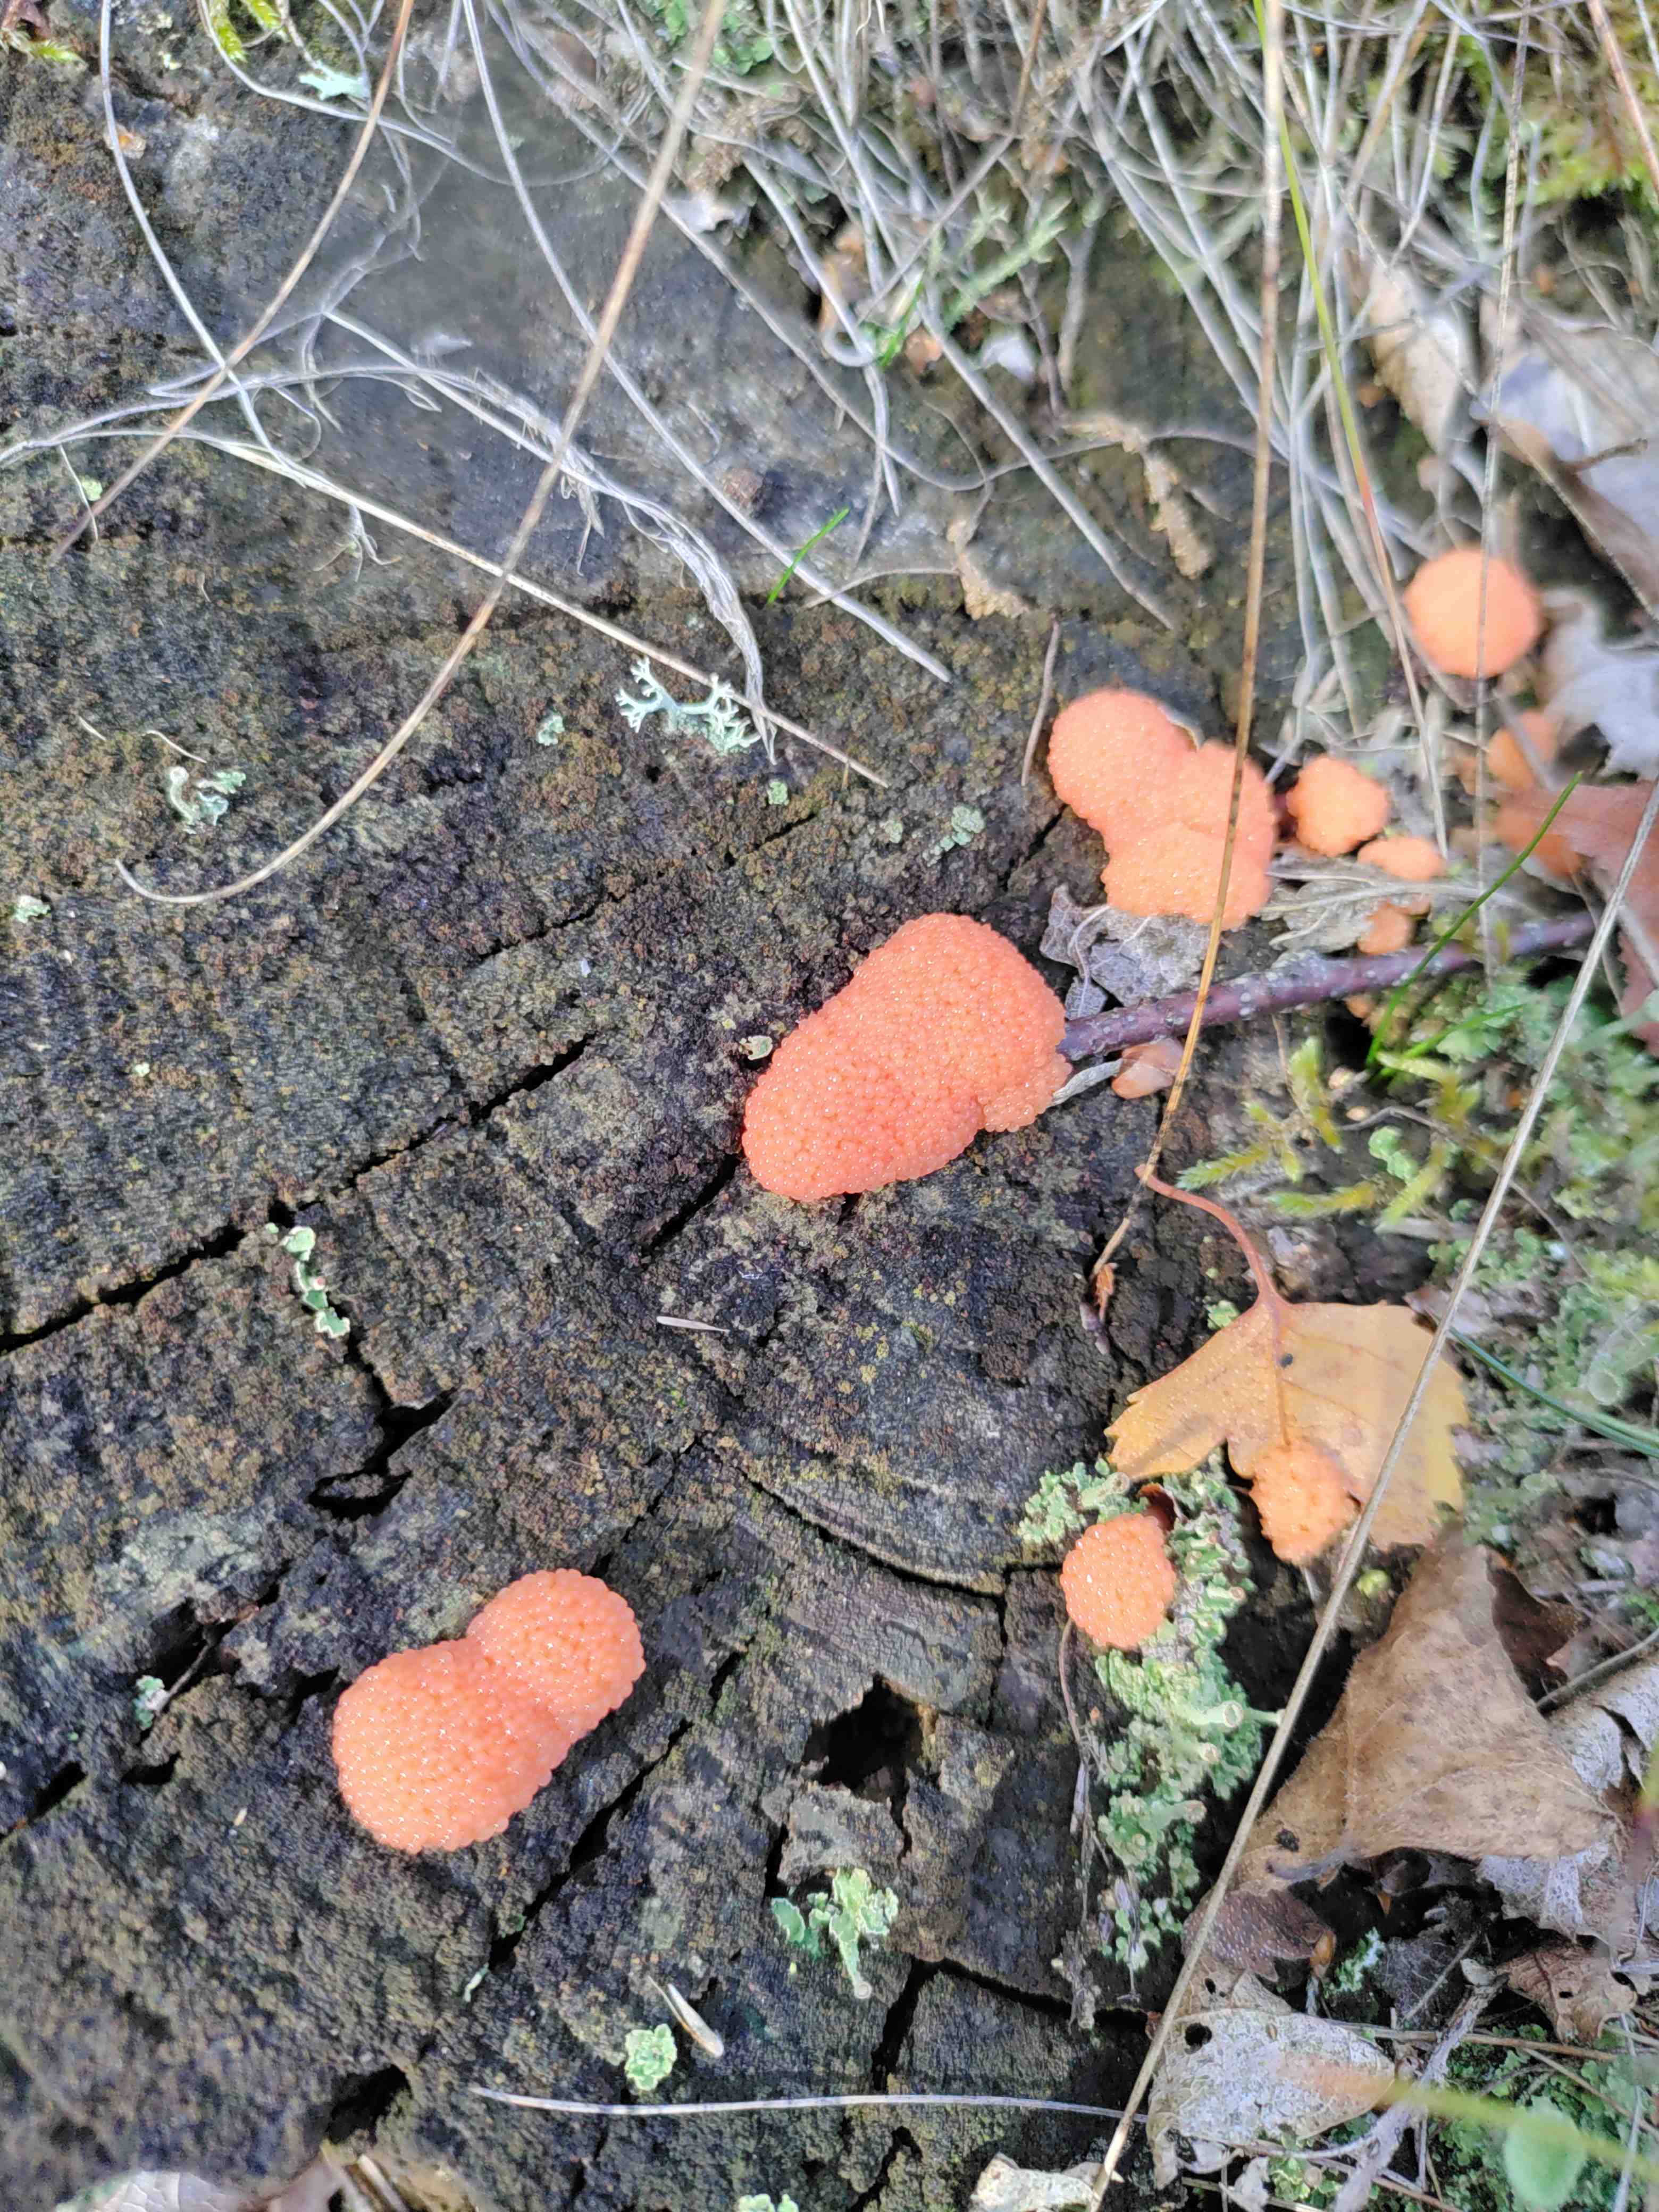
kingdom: Protozoa
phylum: Mycetozoa
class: Myxomycetes
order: Cribrariales
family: Tubiferaceae
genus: Tubifera
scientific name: Tubifera ferruginosa
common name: kanel-støvrør
